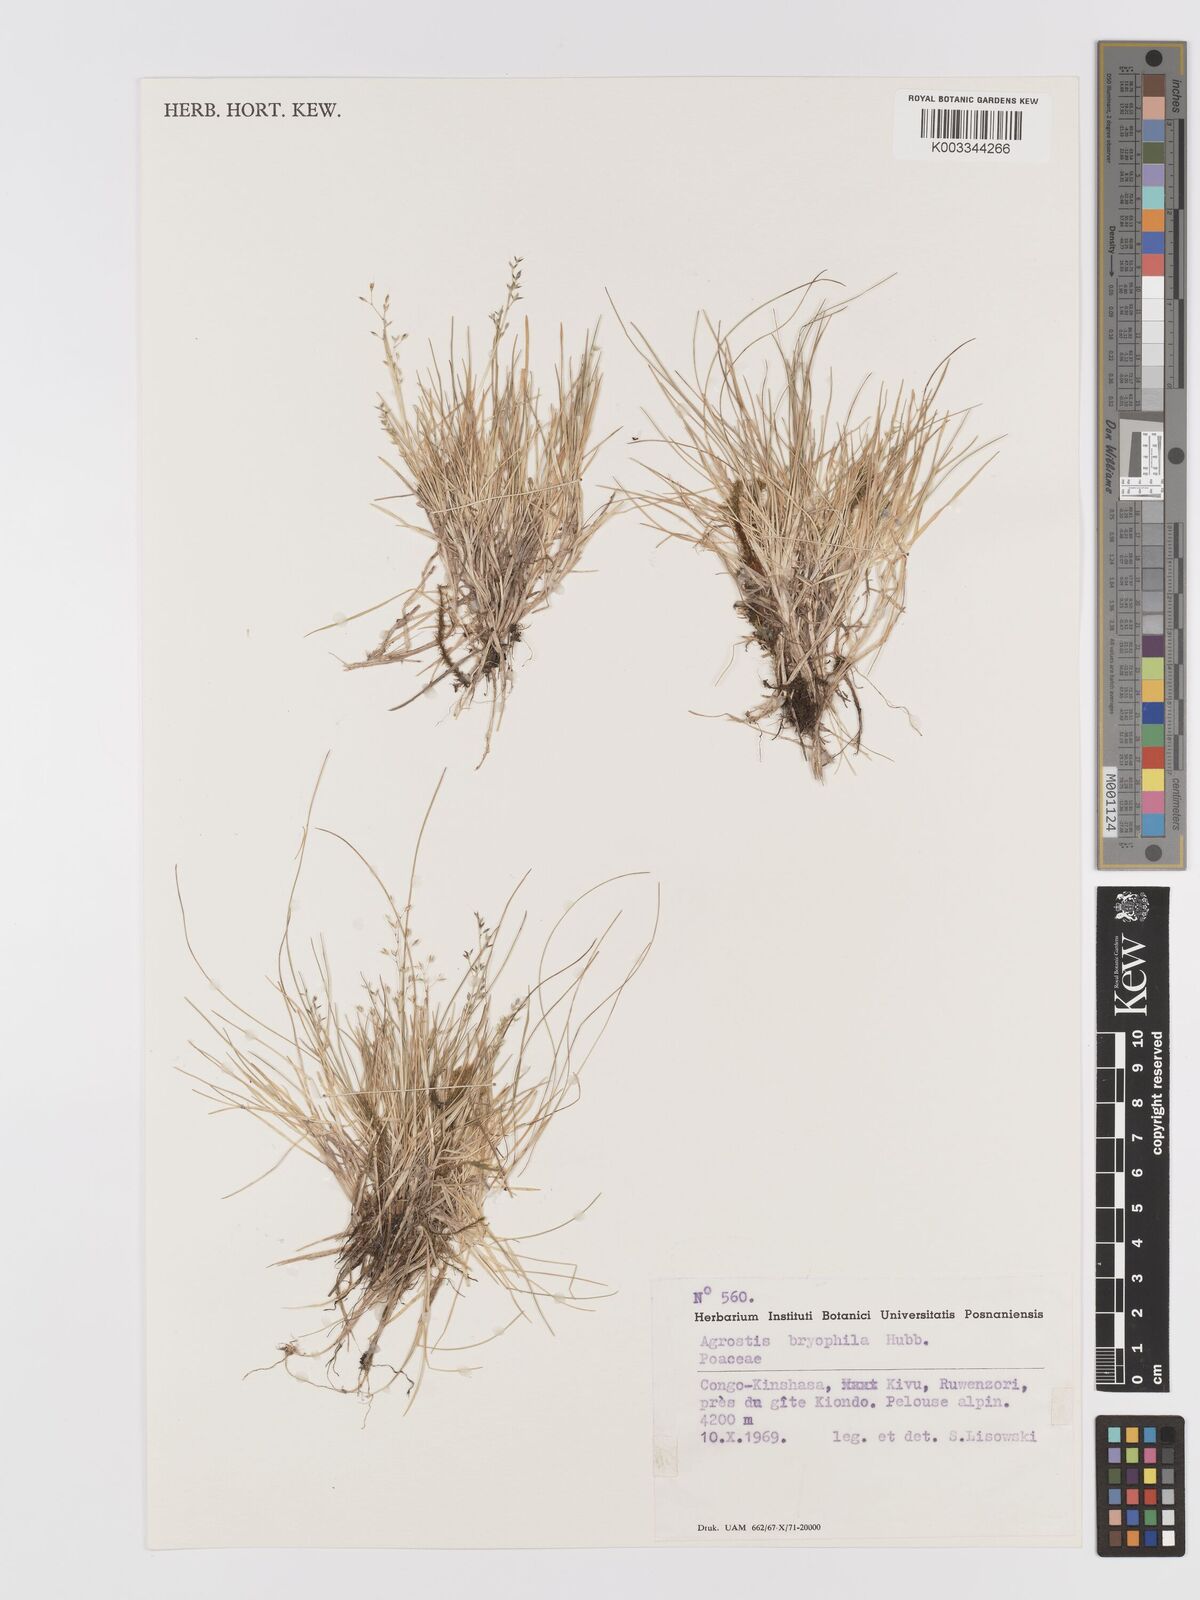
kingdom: Plantae
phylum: Tracheophyta
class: Liliopsida
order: Poales
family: Poaceae
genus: Agrostis
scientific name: Agrostis gracilifolia
